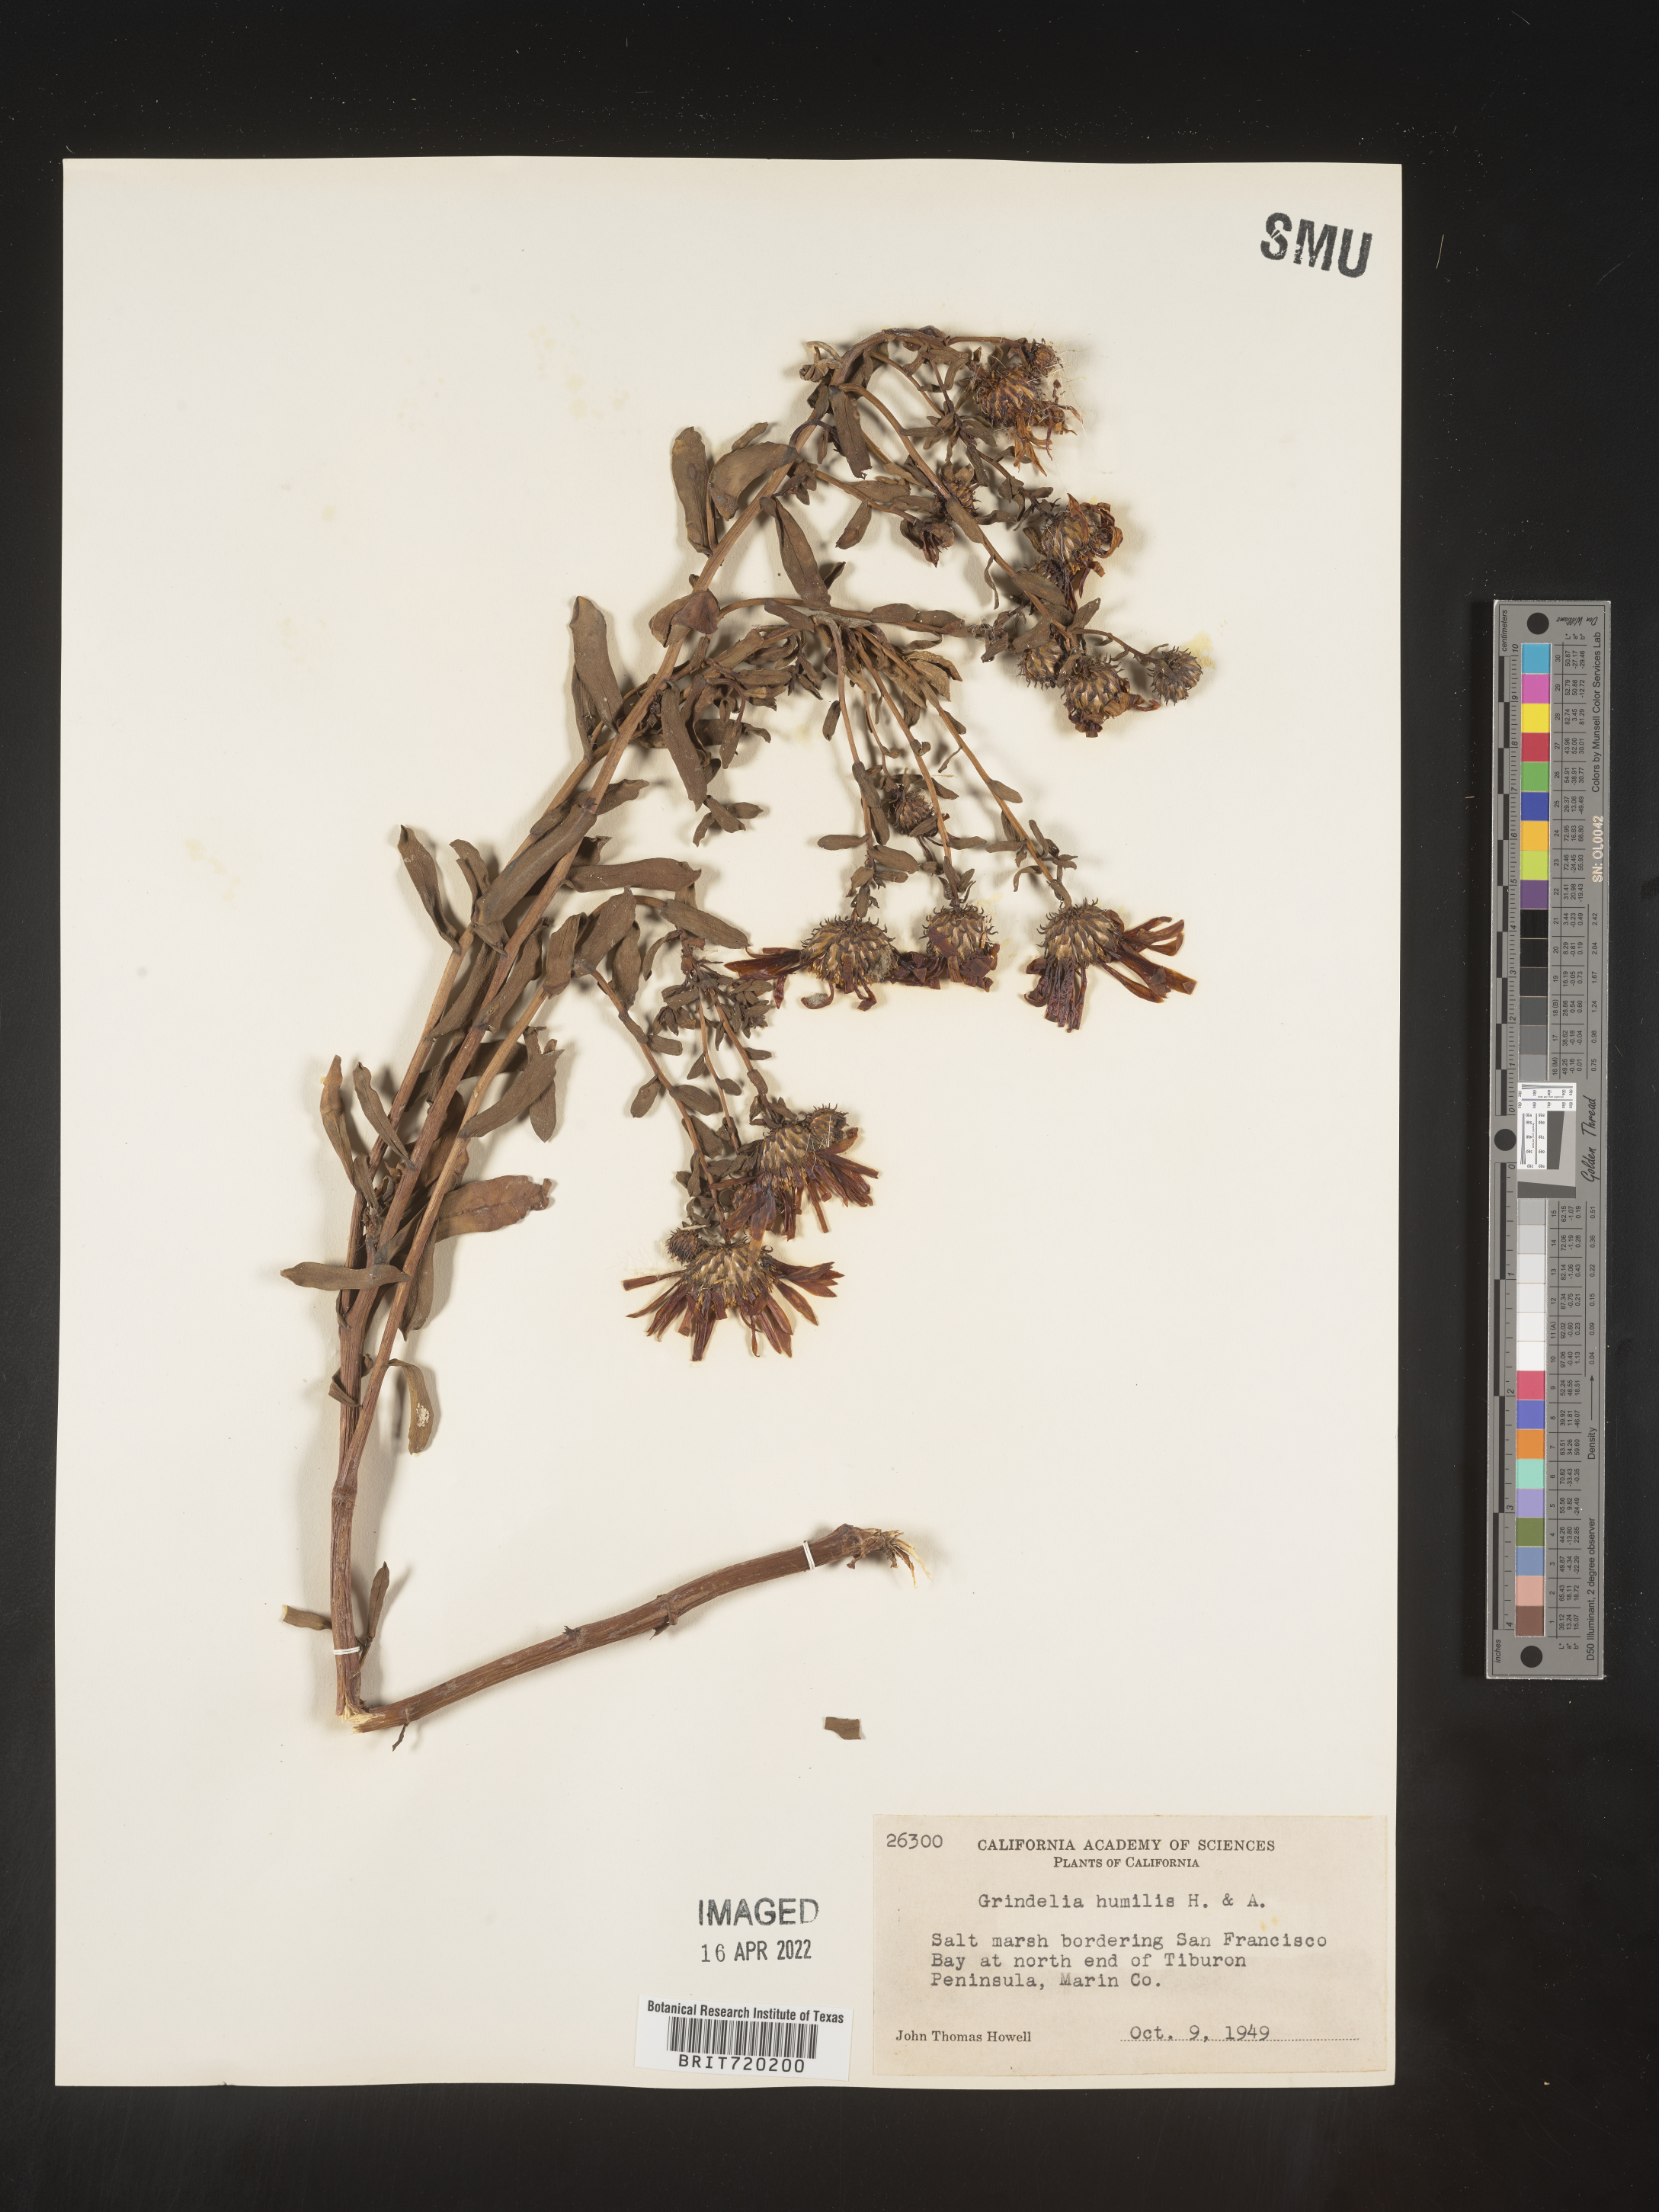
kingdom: Plantae
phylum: Tracheophyta
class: Magnoliopsida
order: Asterales
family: Asteraceae
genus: Grindelia
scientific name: Grindelia hirsutula
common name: Hairy gumweed
